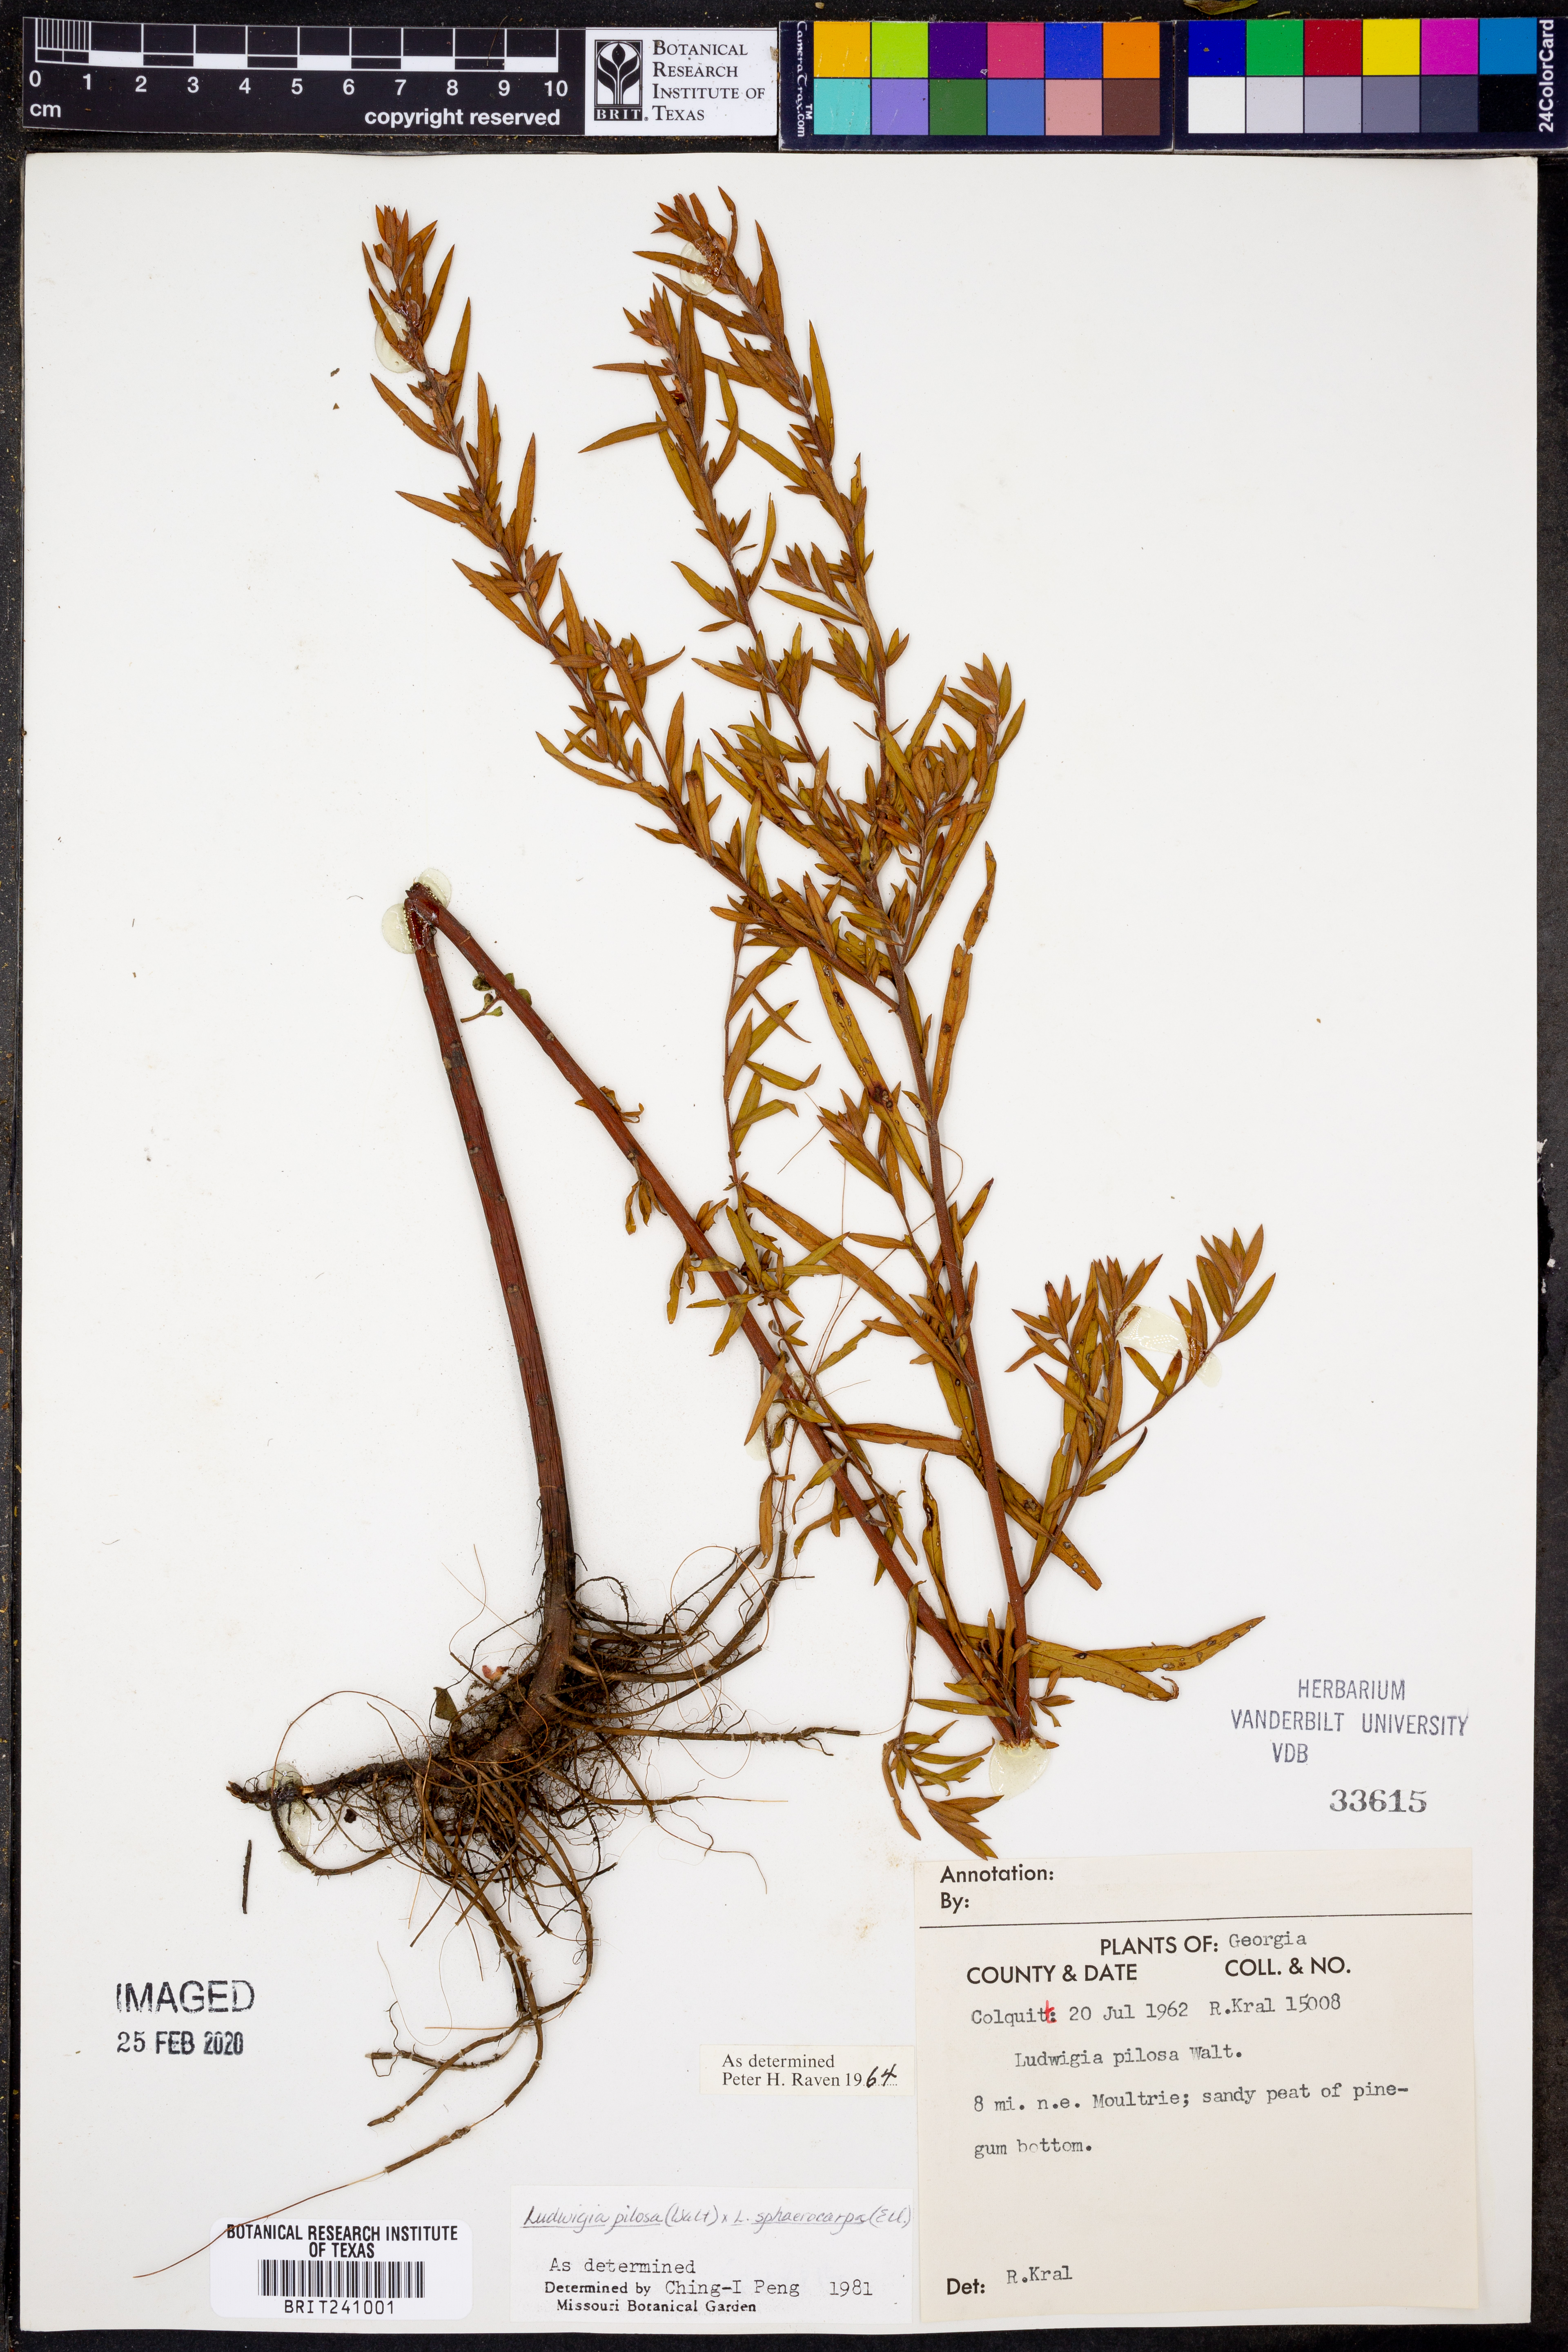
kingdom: Plantae
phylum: Tracheophyta
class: Magnoliopsida
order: Myrtales
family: Onagraceae
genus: Ludwigia
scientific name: Ludwigia pilosa
